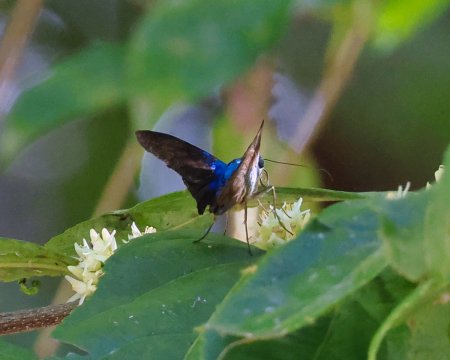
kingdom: Animalia
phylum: Arthropoda
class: Insecta
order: Lepidoptera
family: Hesperiidae
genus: Astraptes
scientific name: Astraptes megalurus
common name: Long-tailed Flasher
